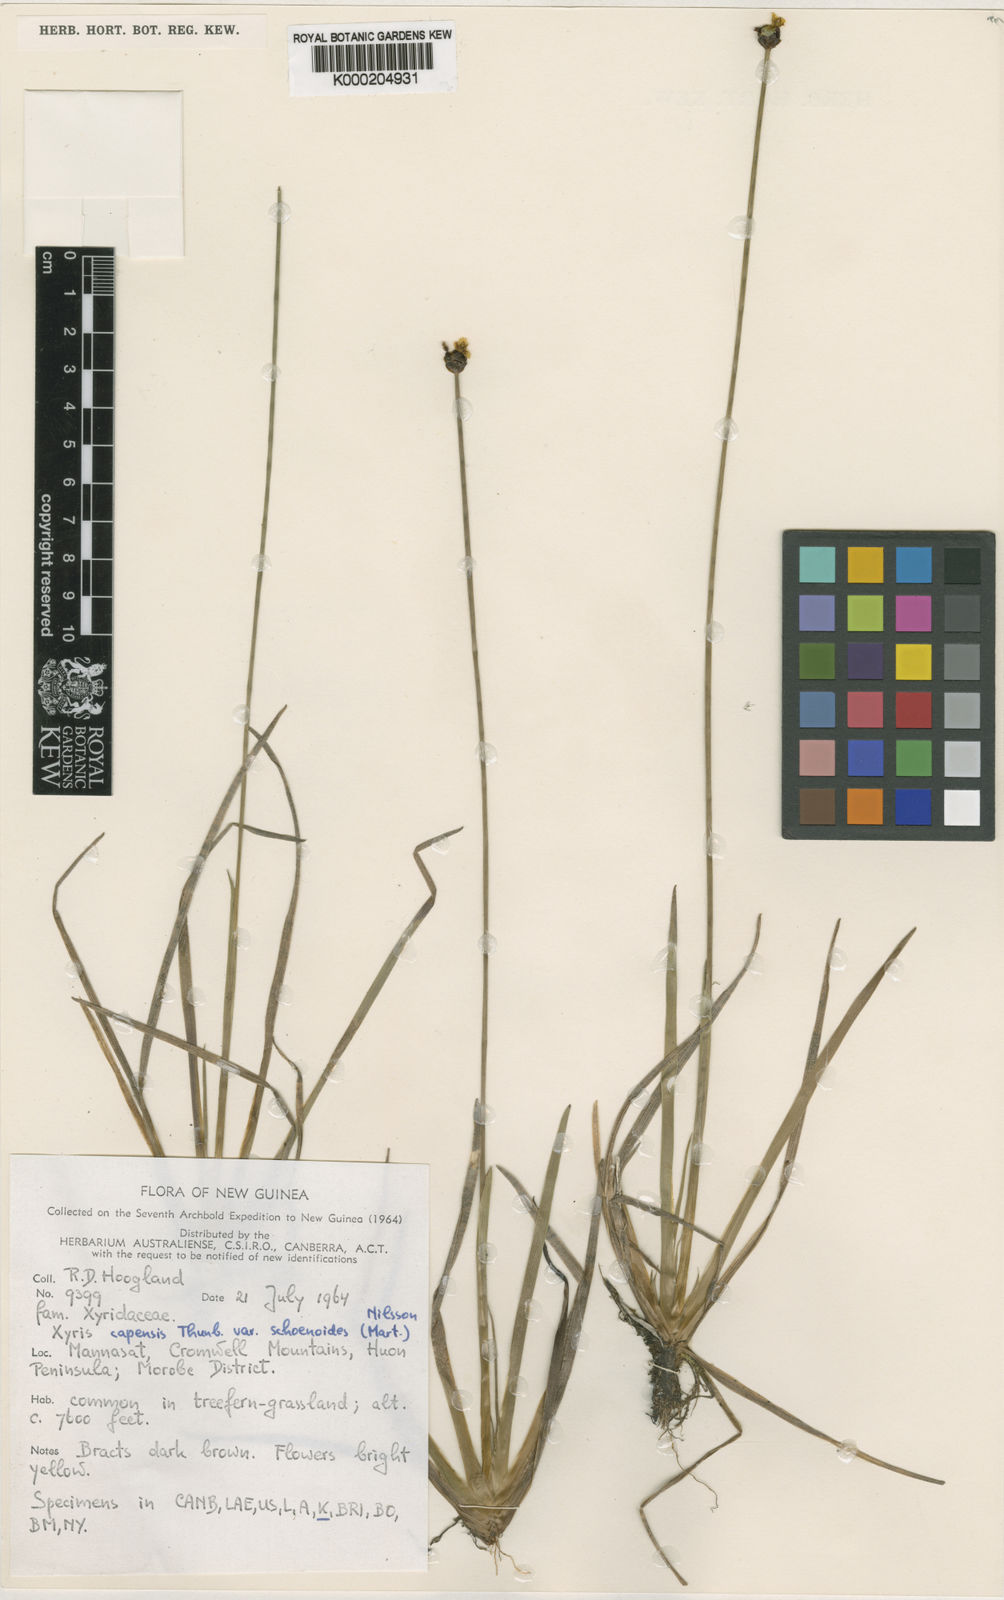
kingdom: Plantae
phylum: Tracheophyta
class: Liliopsida
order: Poales
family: Xyridaceae
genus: Xyris
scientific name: Xyris capensis
